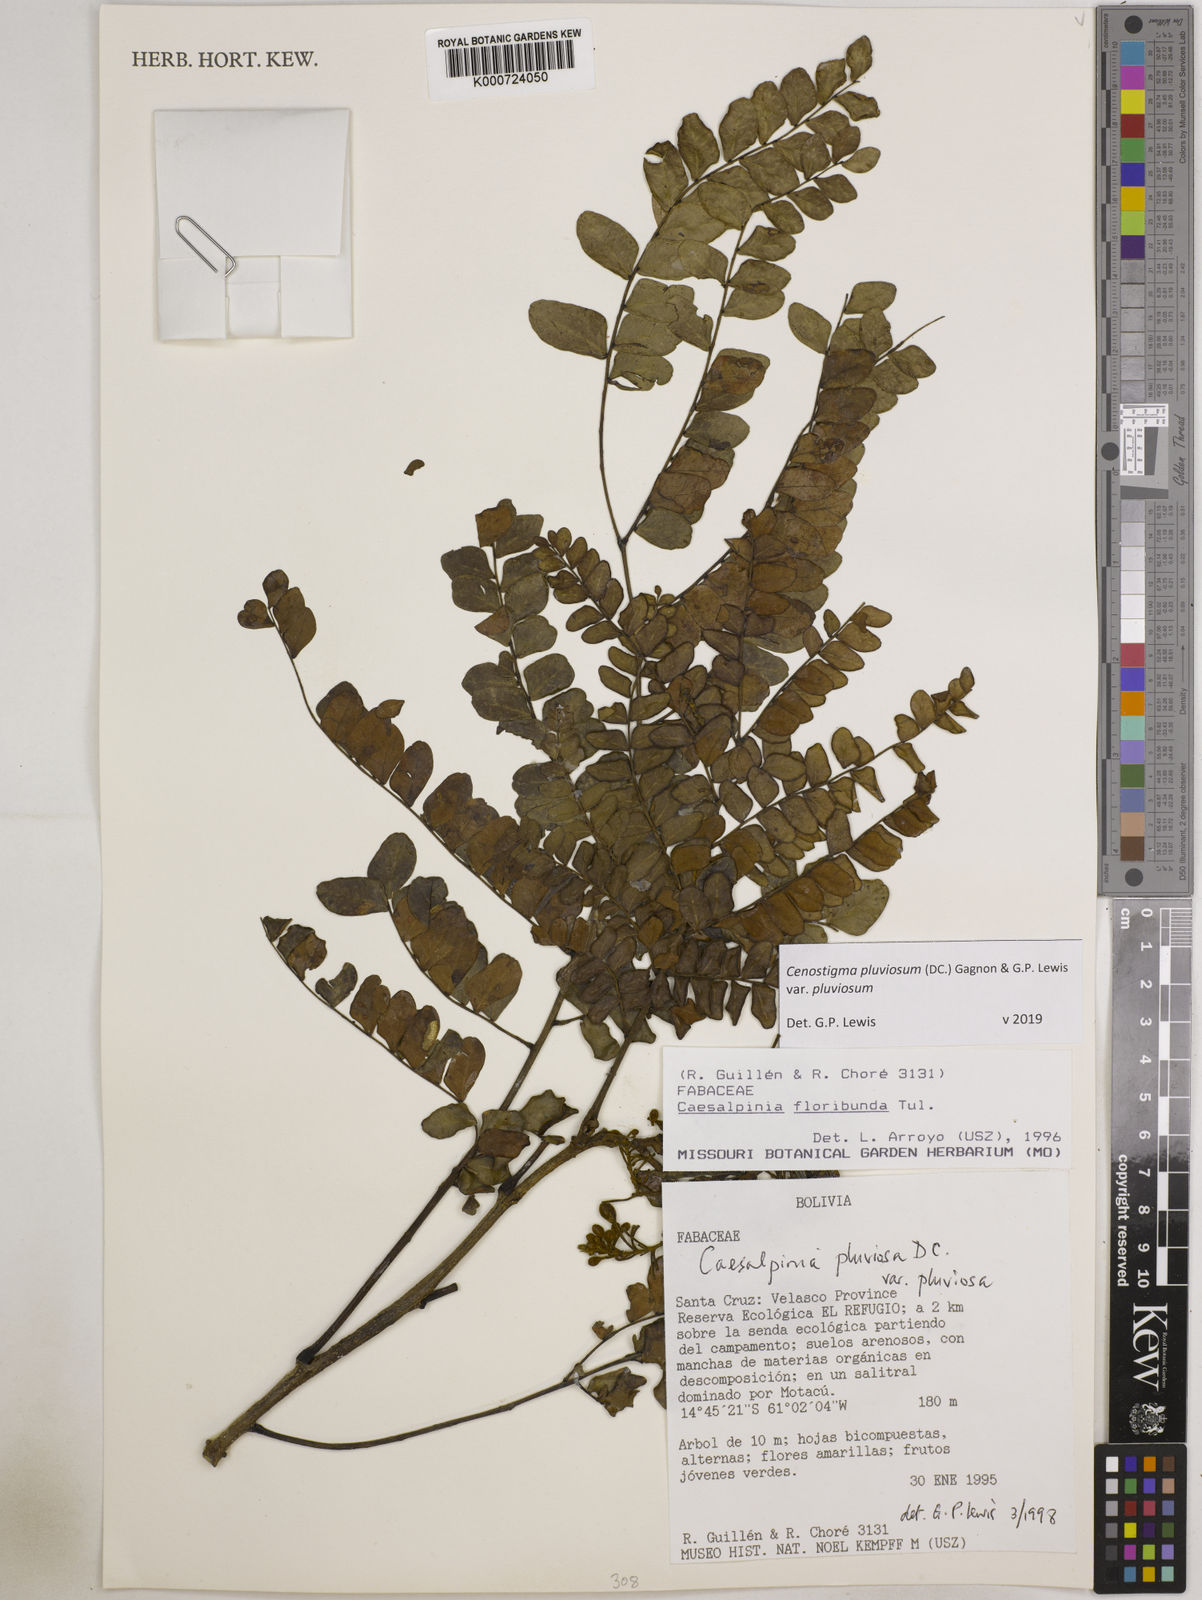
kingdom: Plantae
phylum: Tracheophyta
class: Magnoliopsida
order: Fabales
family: Fabaceae
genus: Cenostigma
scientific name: Cenostigma pluviosum
